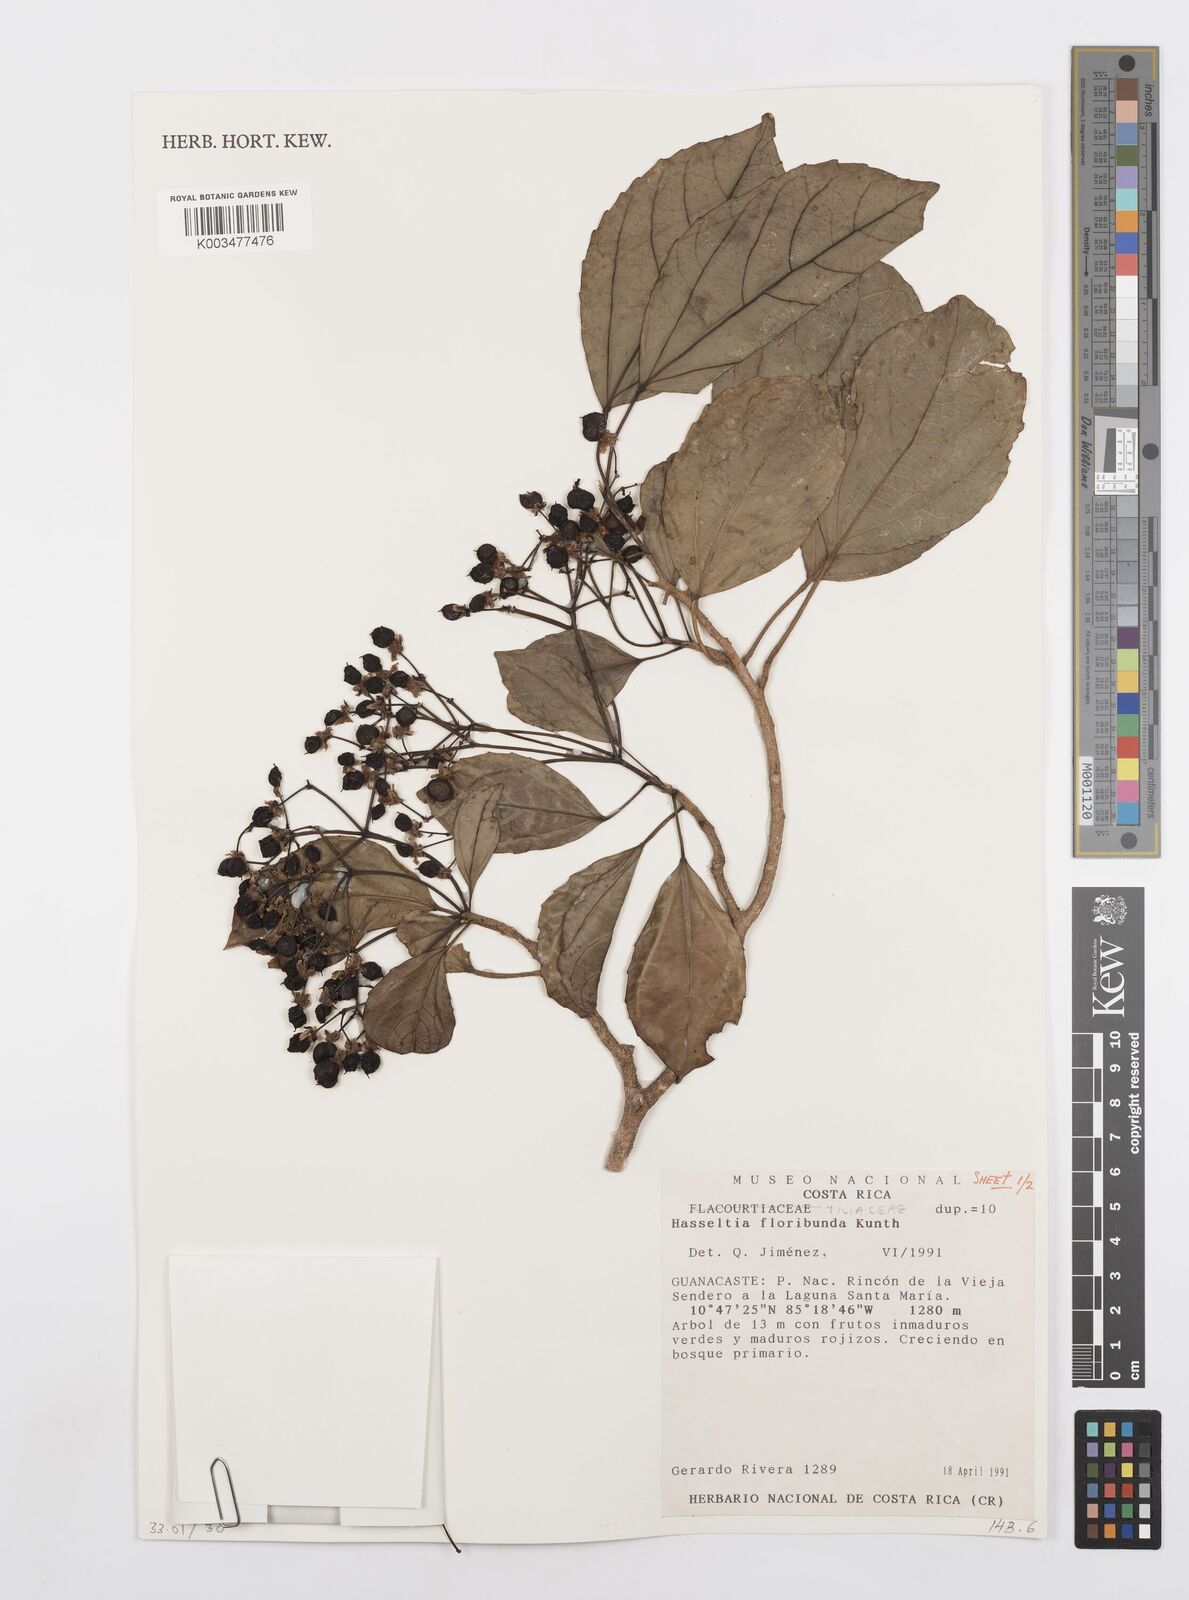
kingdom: Plantae
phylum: Tracheophyta
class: Magnoliopsida
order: Malpighiales
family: Salicaceae
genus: Hasseltia
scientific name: Hasseltia floribunda
